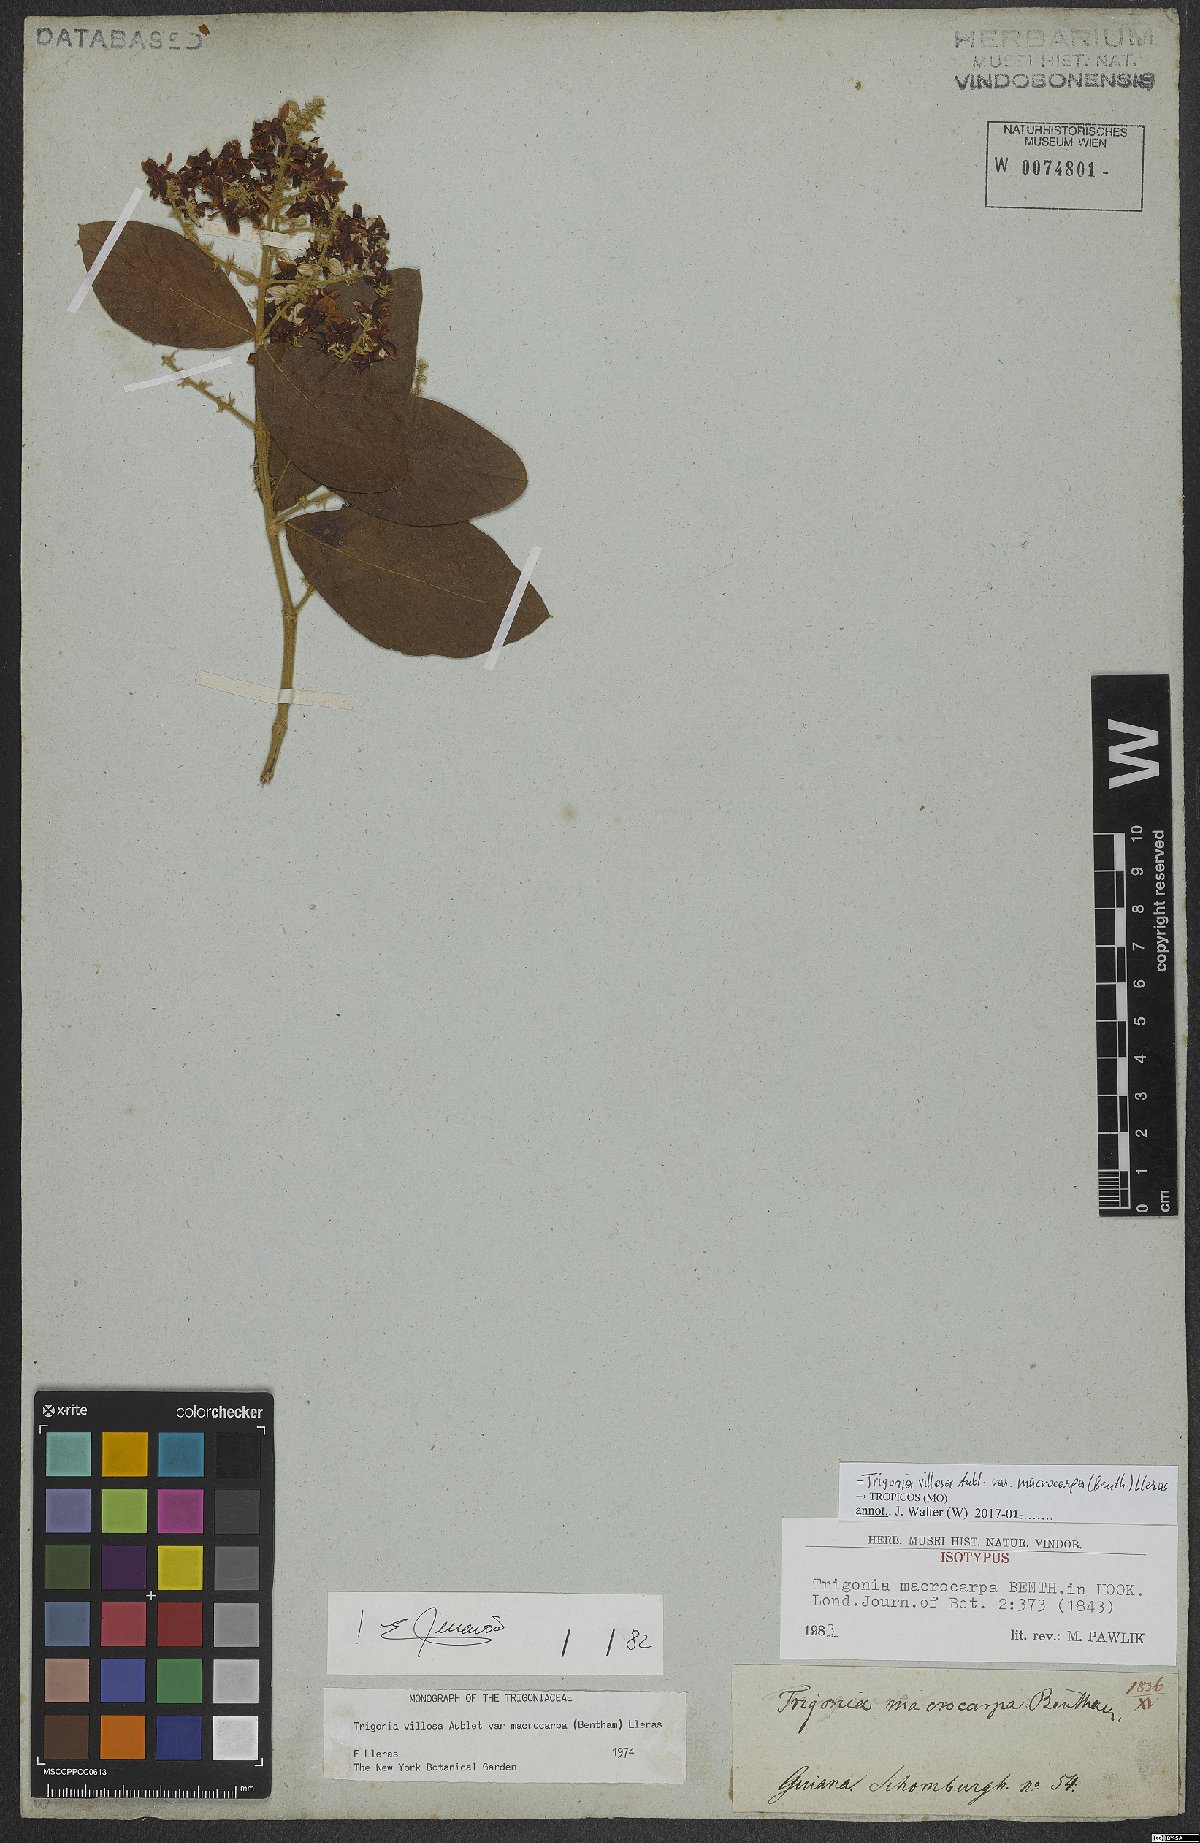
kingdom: Plantae
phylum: Tracheophyta
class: Magnoliopsida
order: Malpighiales
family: Trigoniaceae
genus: Trigonia
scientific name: Trigonia villosa
